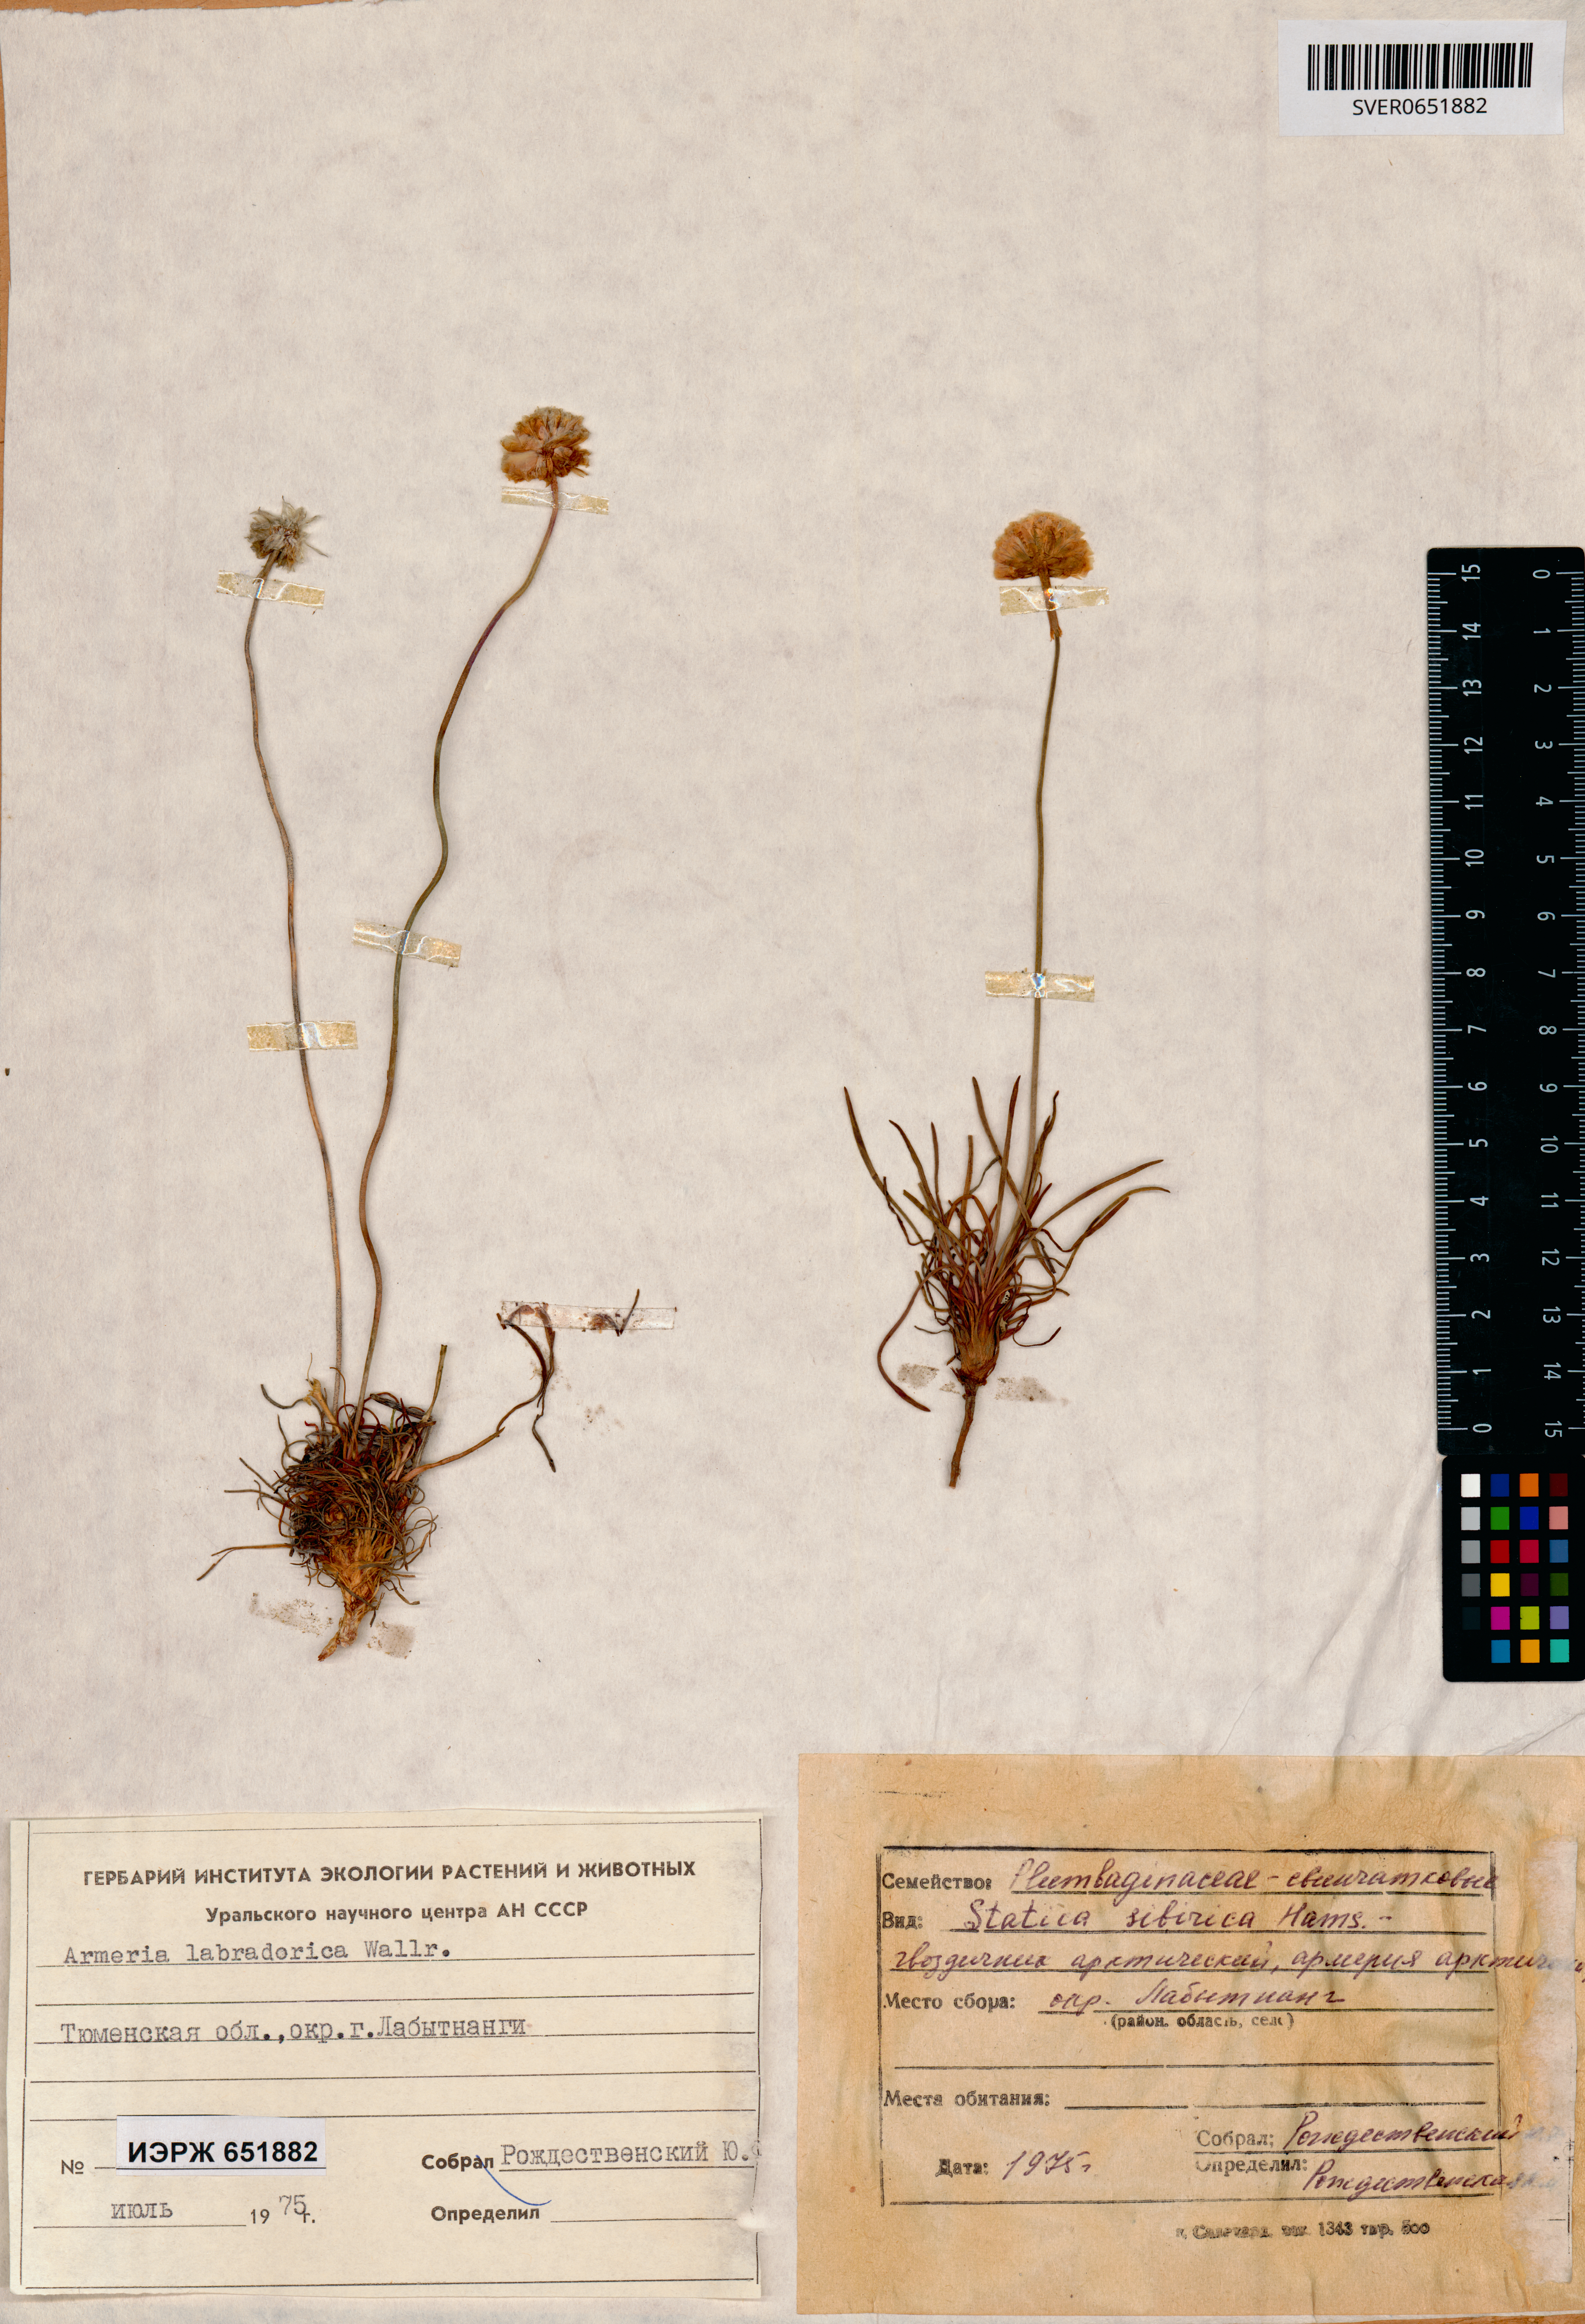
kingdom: Plantae
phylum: Tracheophyta
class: Magnoliopsida
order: Caryophyllales
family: Plumbaginaceae
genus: Armeria
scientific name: Armeria maritima
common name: Thrift
